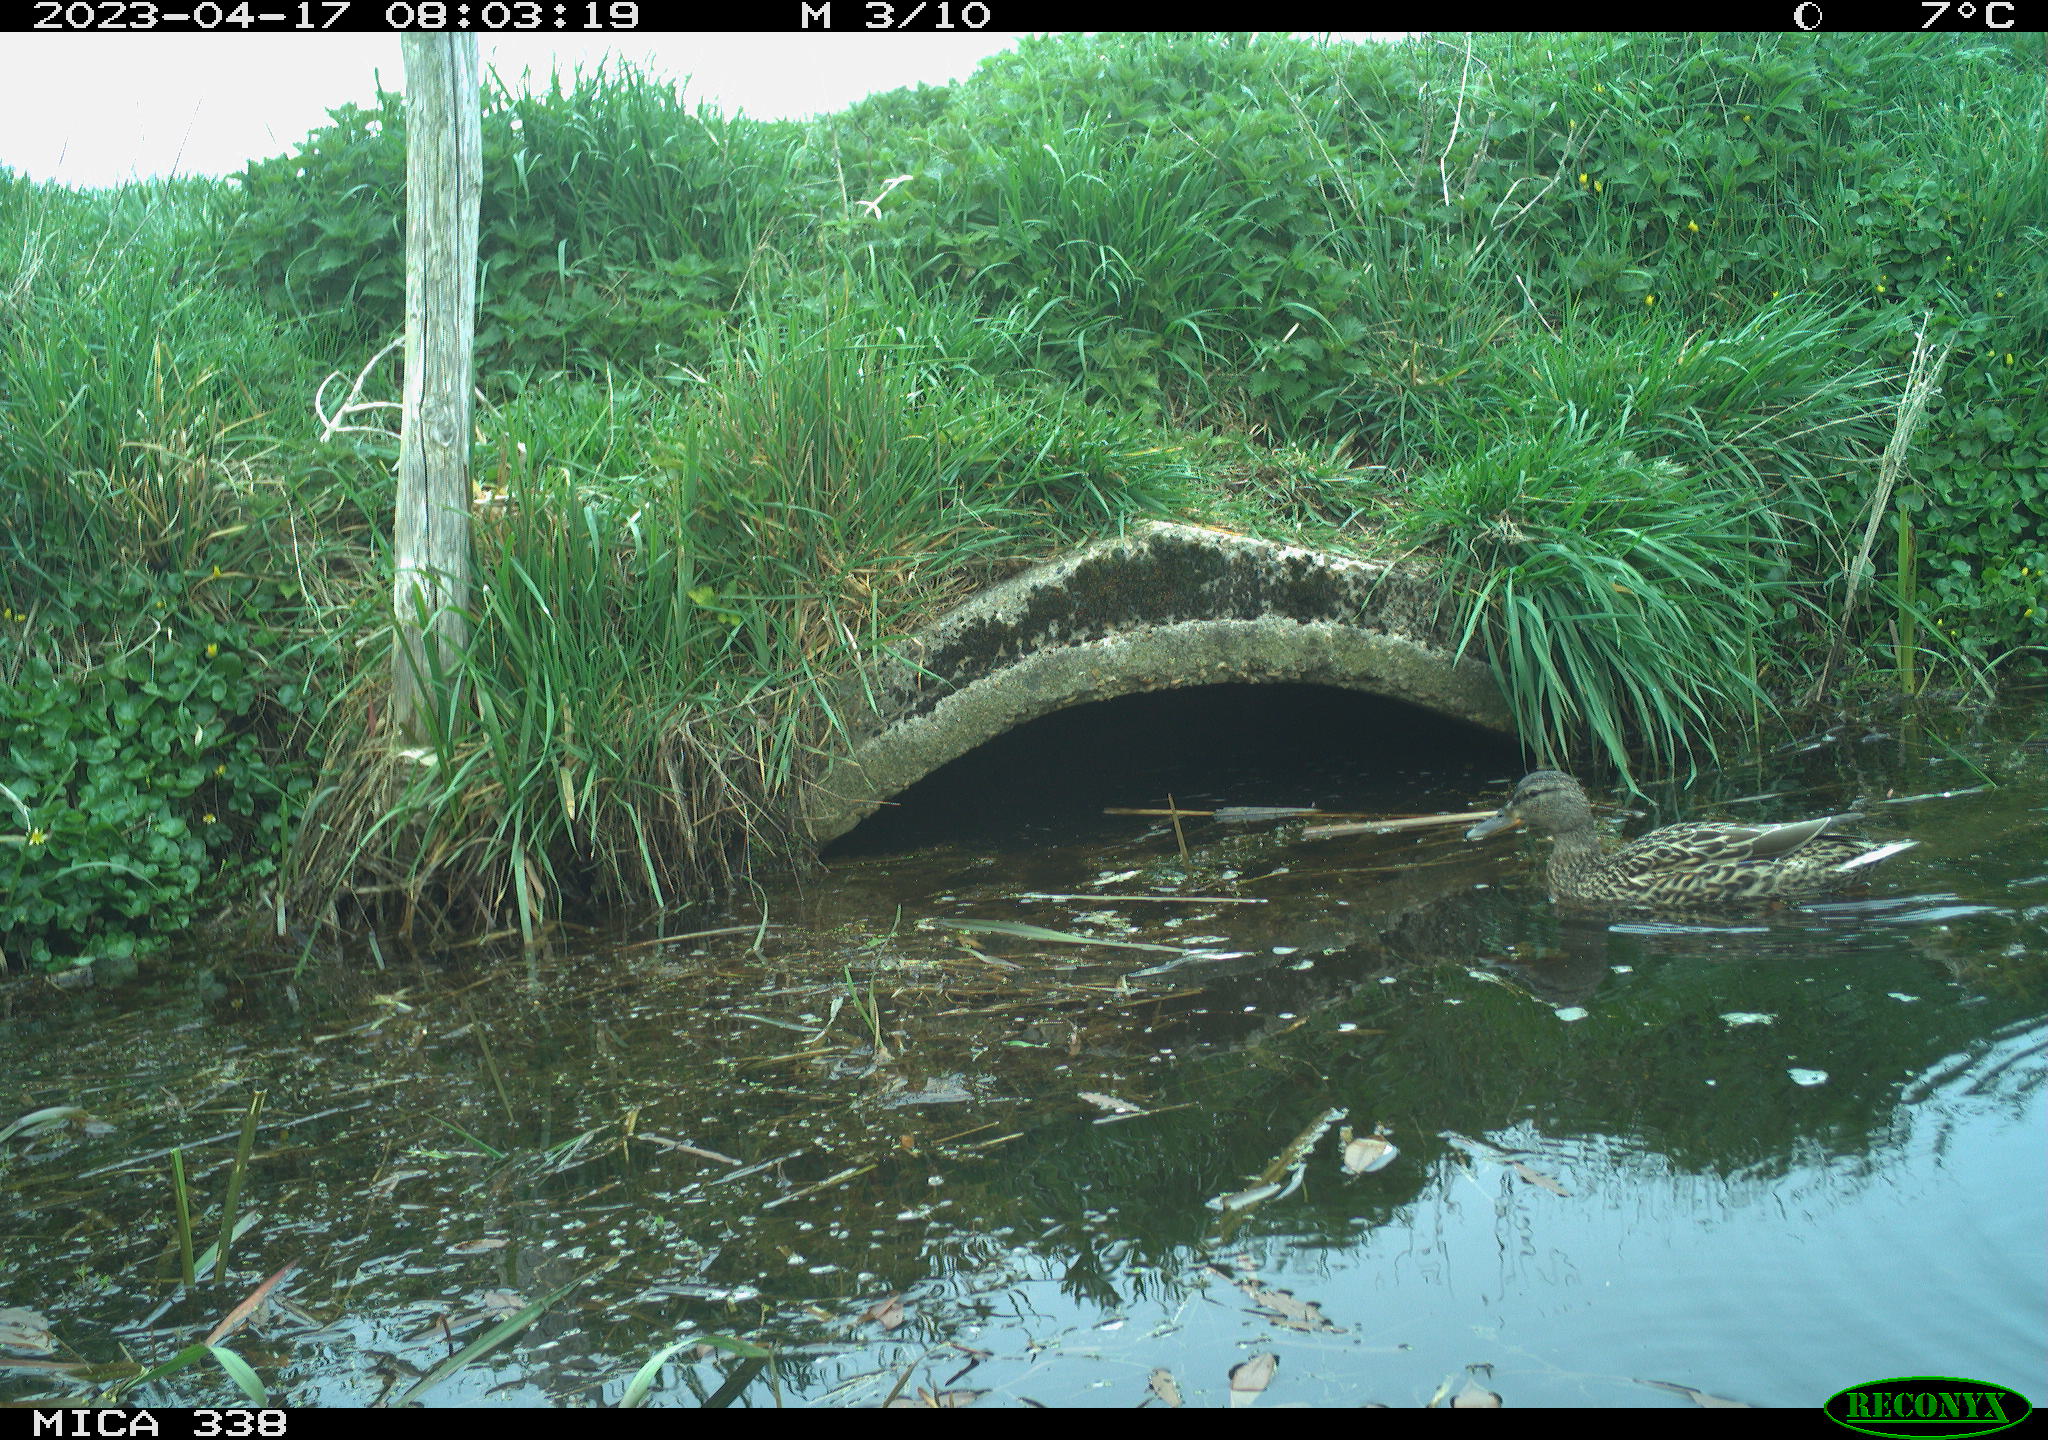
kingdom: Animalia
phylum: Chordata
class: Aves
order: Anseriformes
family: Anatidae
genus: Anas
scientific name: Anas platyrhynchos
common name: Mallard
